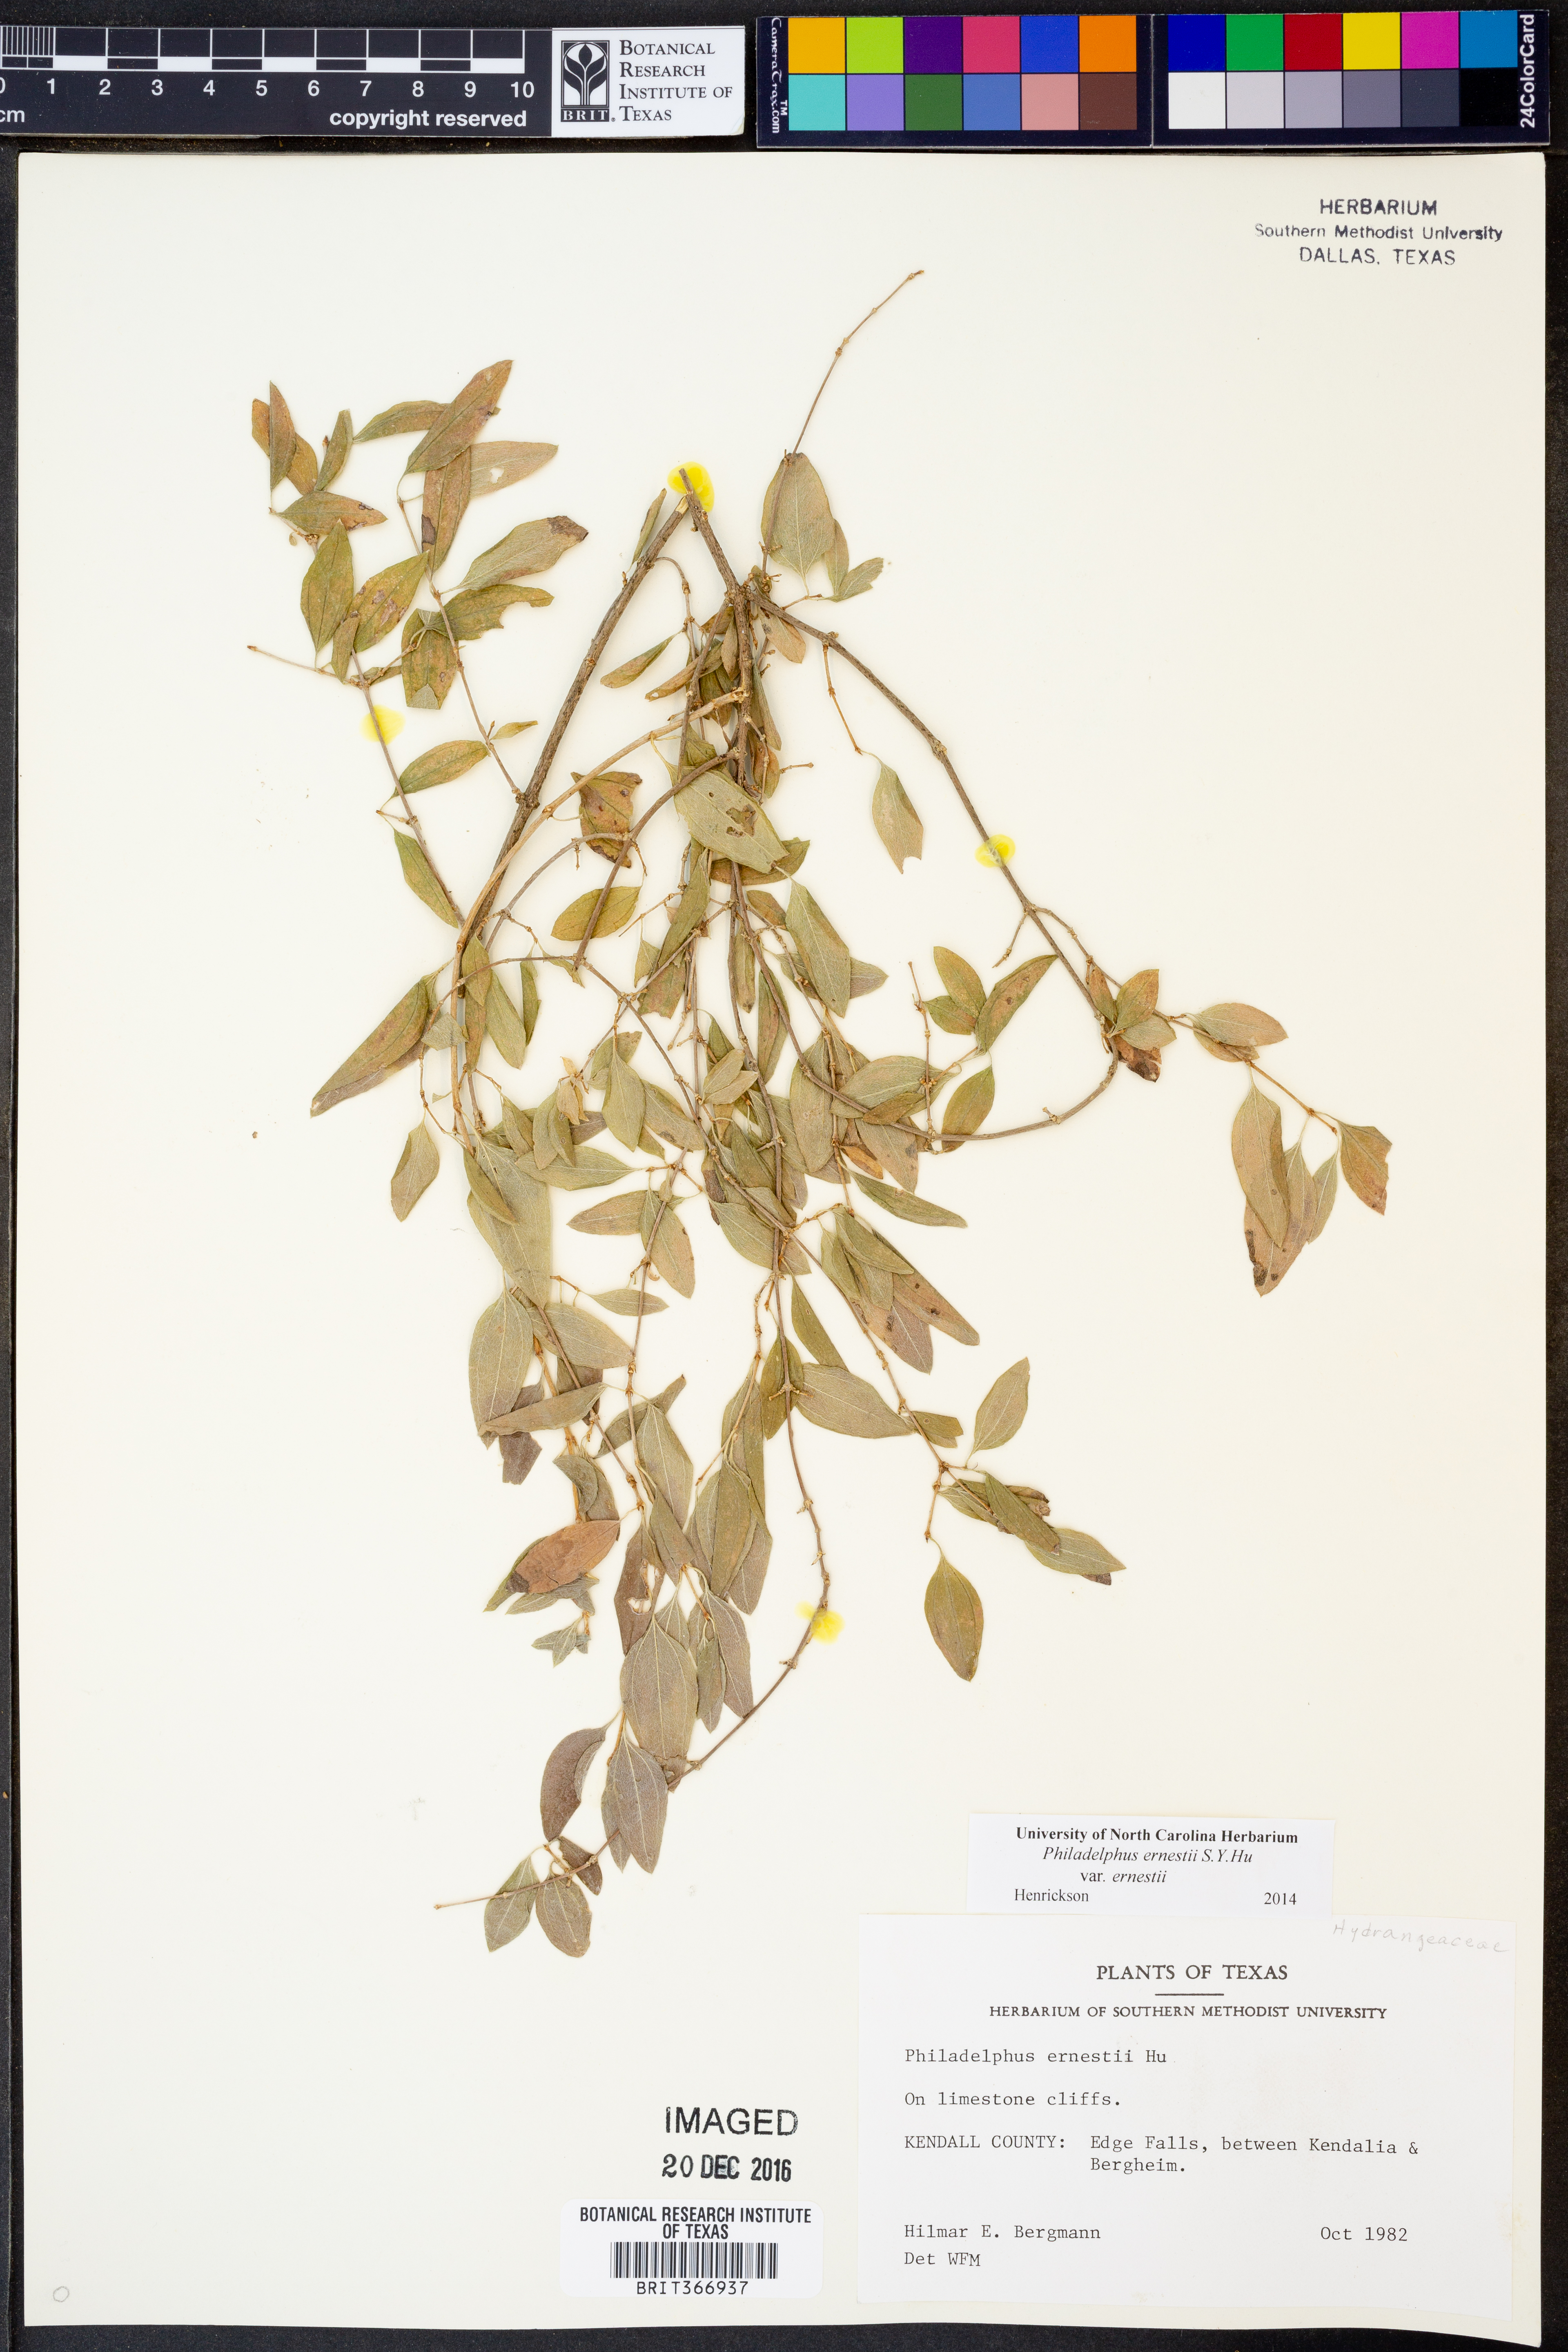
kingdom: Plantae
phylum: Tracheophyta
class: Magnoliopsida
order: Cornales
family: Hydrangeaceae
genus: Philadelphus
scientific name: Philadelphus texensis
